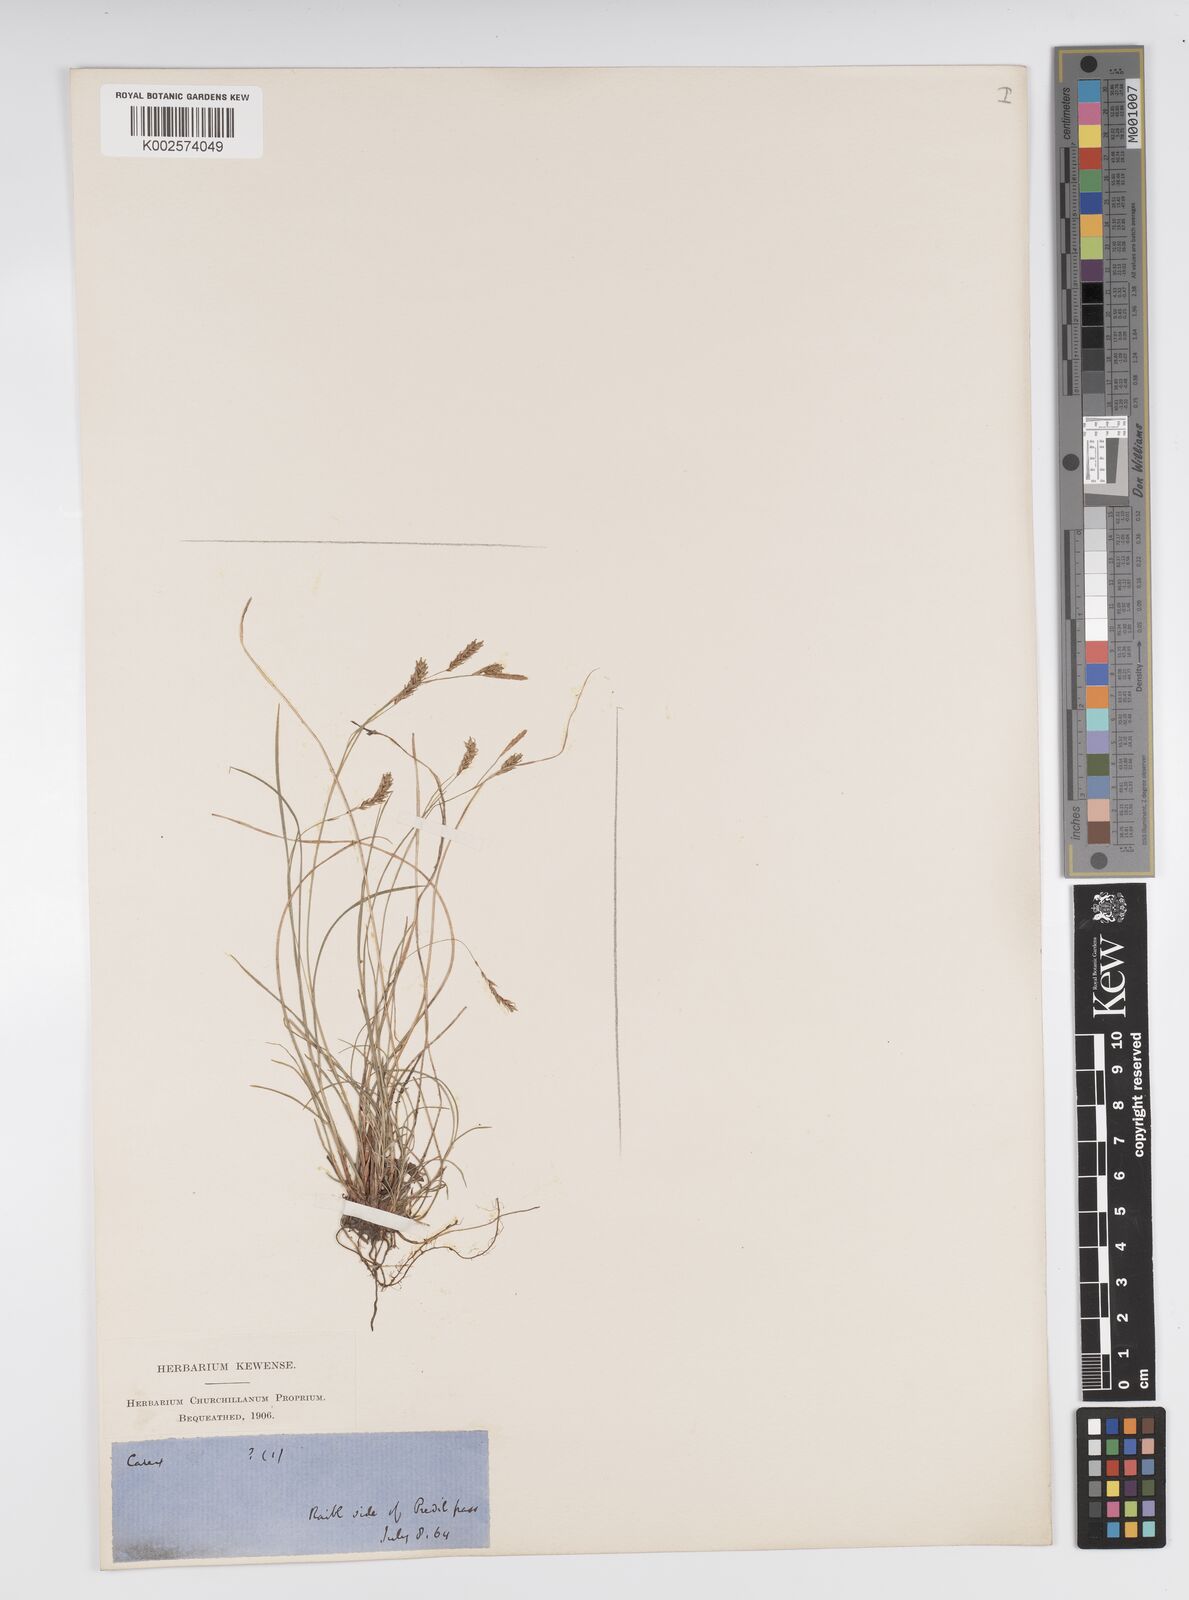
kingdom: Plantae
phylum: Tracheophyta
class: Liliopsida
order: Poales
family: Cyperaceae
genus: Carex
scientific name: Carex brachystachys
